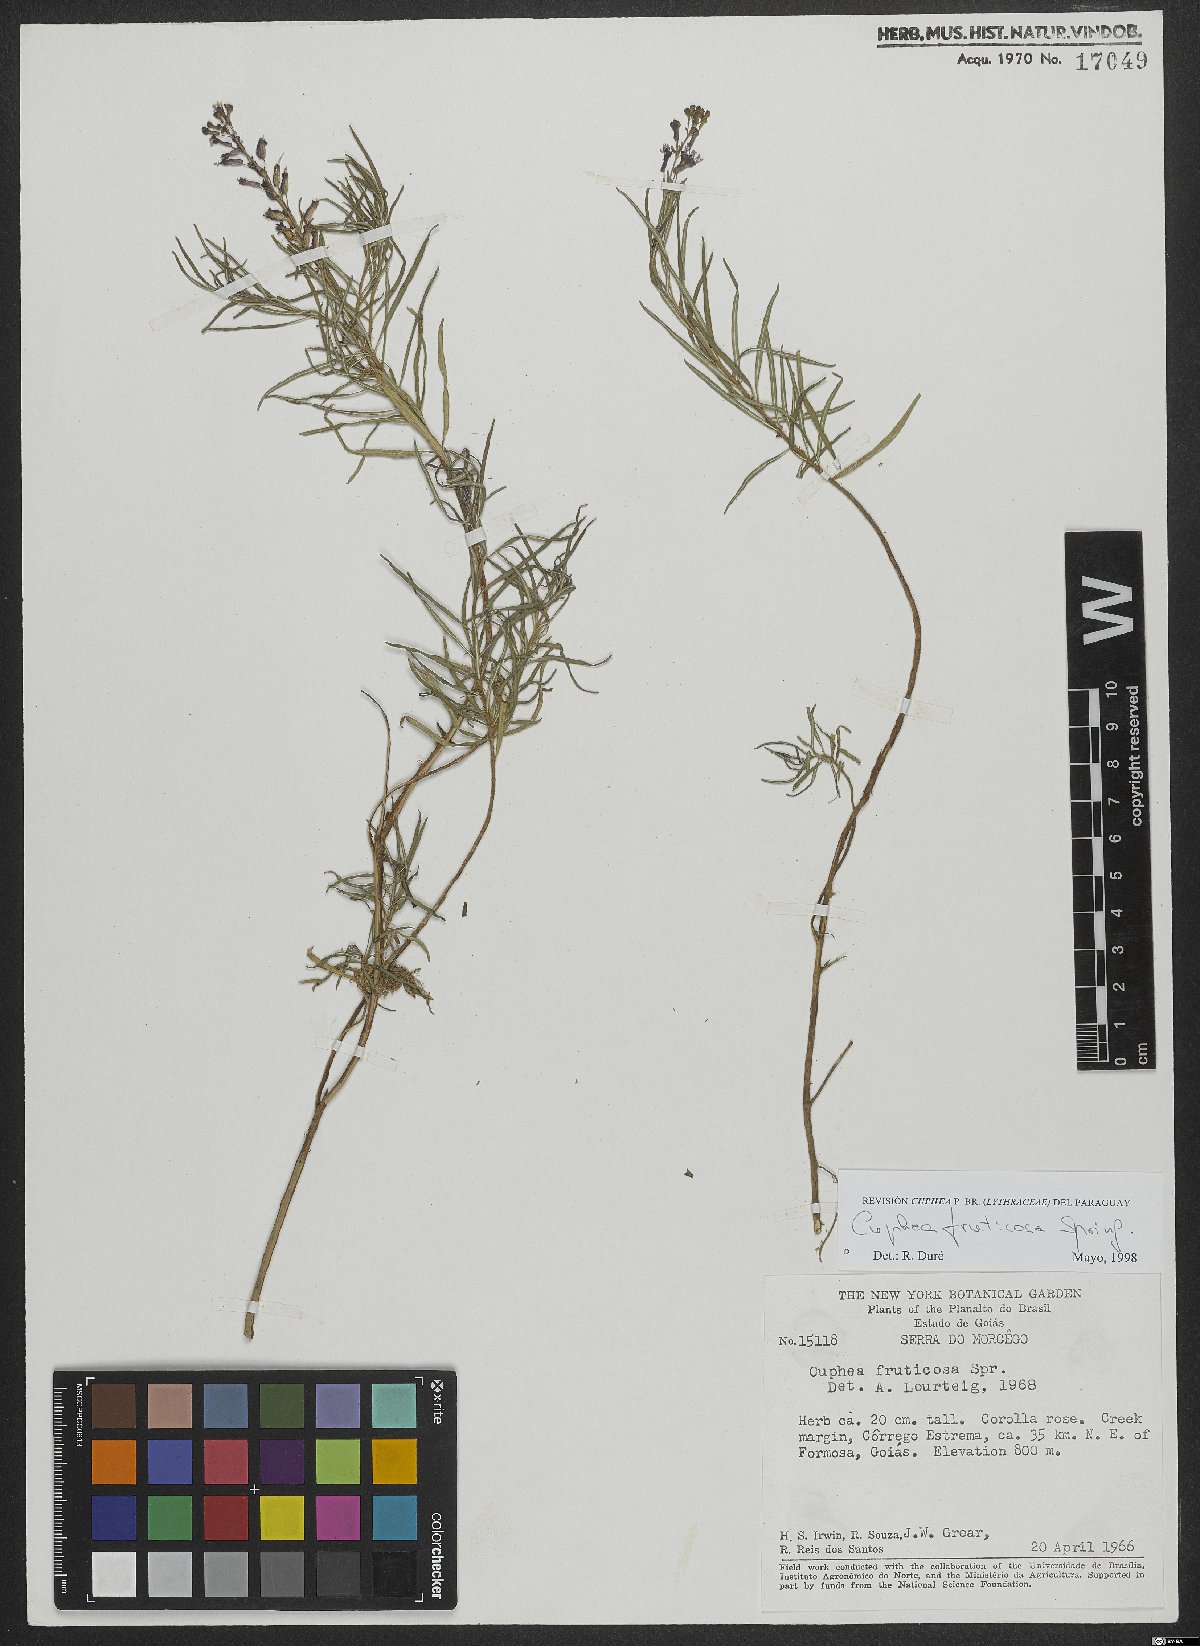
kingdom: Plantae
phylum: Tracheophyta
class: Magnoliopsida
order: Myrtales
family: Lythraceae
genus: Cuphea
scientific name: Cuphea fruticosa
